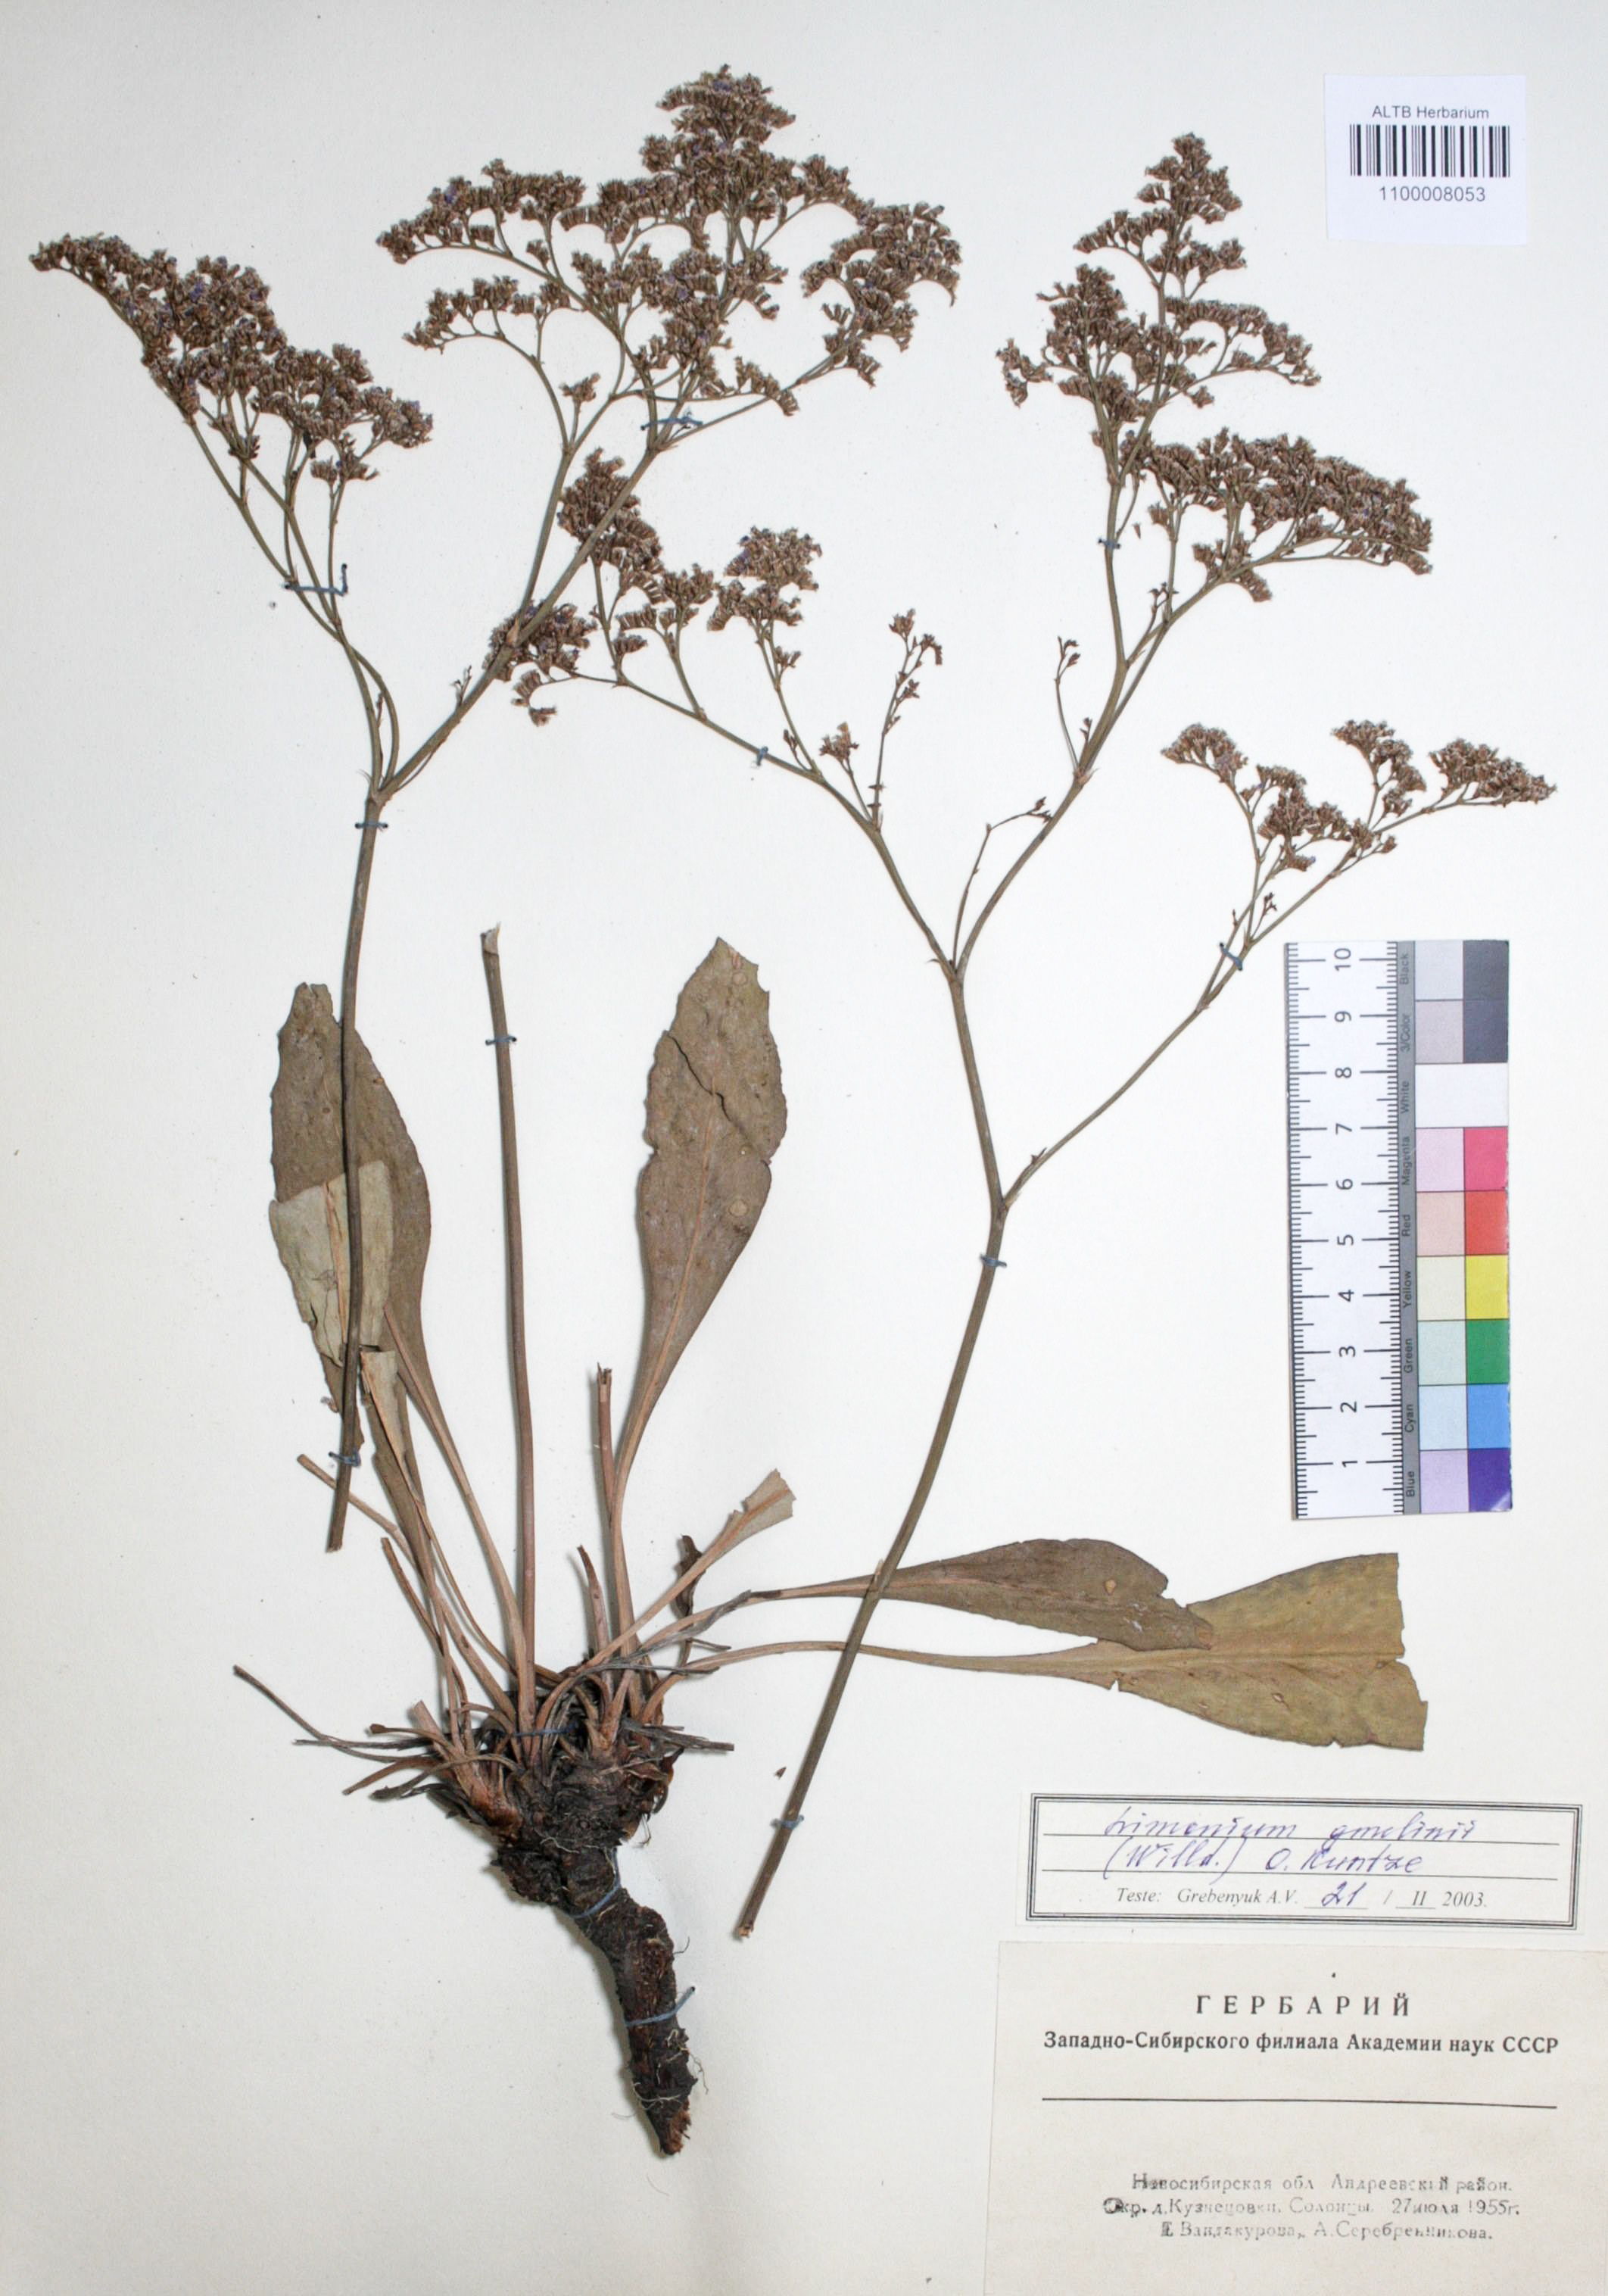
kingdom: Plantae
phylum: Tracheophyta
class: Magnoliopsida
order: Caryophyllales
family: Plumbaginaceae
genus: Limonium
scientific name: Limonium gmelini
